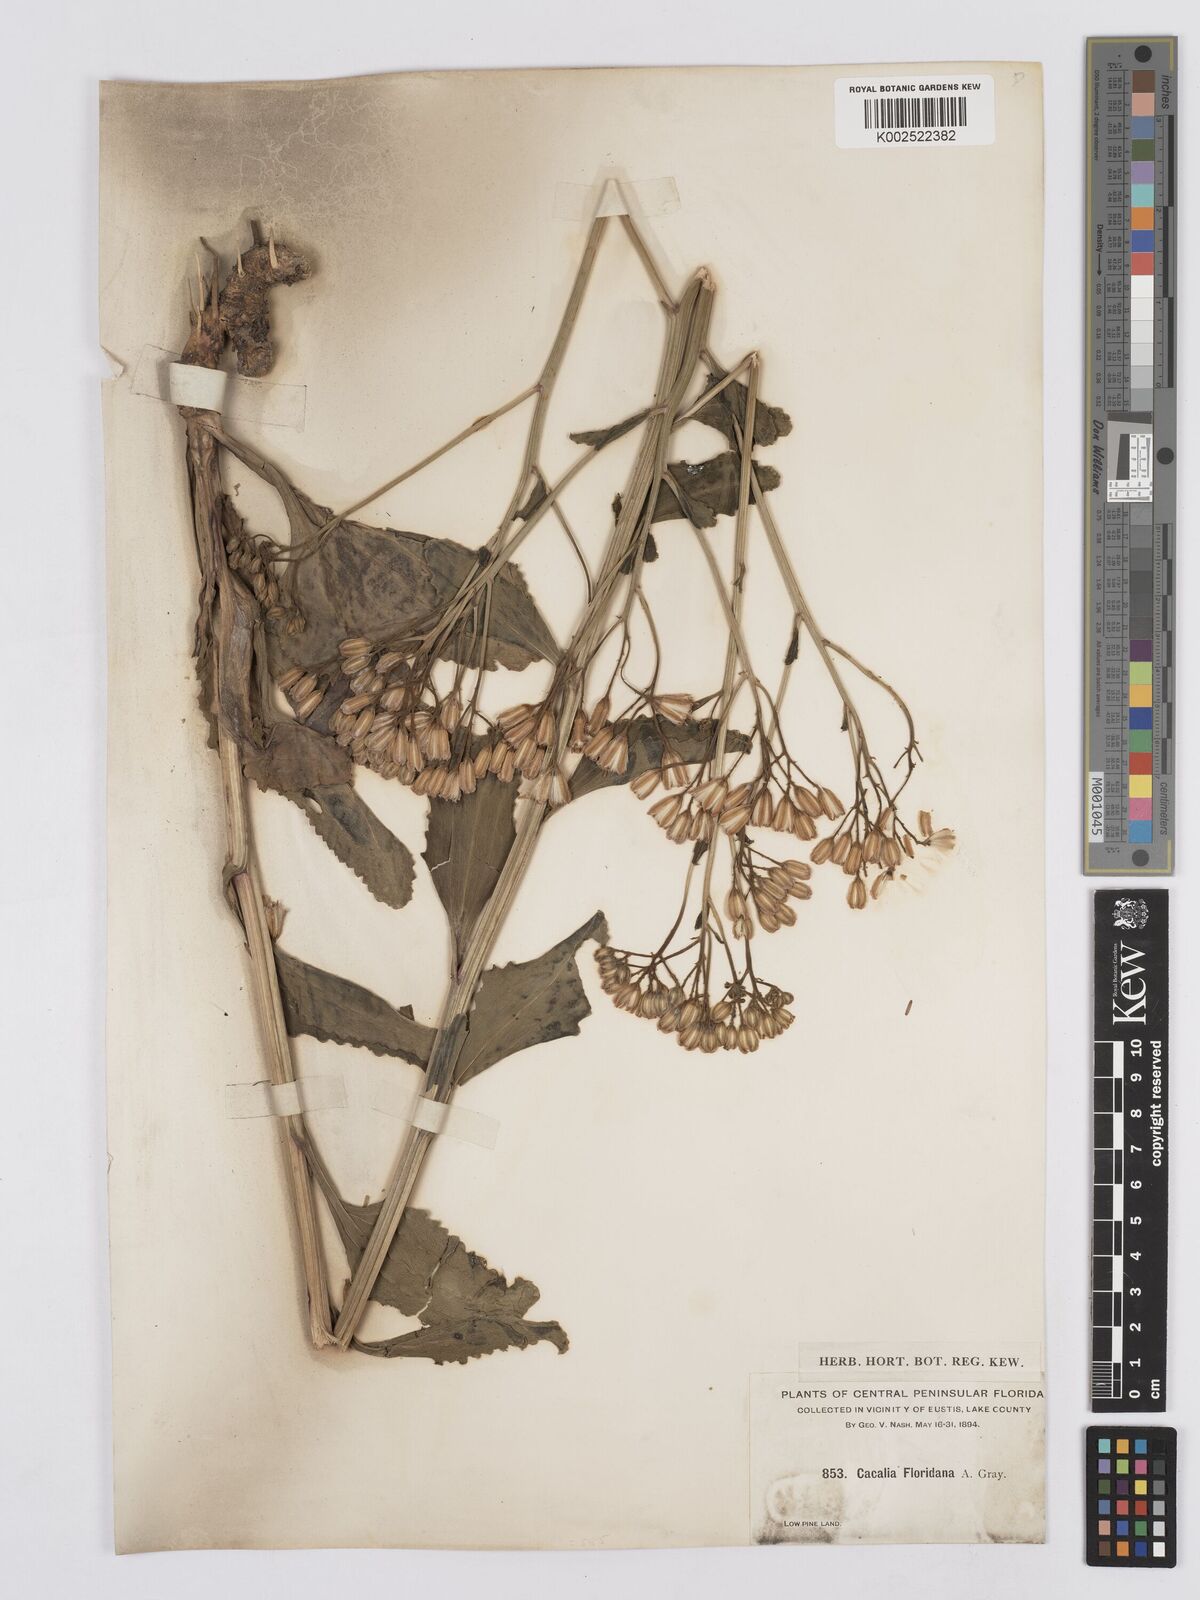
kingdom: Plantae
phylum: Tracheophyta
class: Magnoliopsida
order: Asterales
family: Asteraceae
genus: Arnoglossum
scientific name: Arnoglossum floridanum
